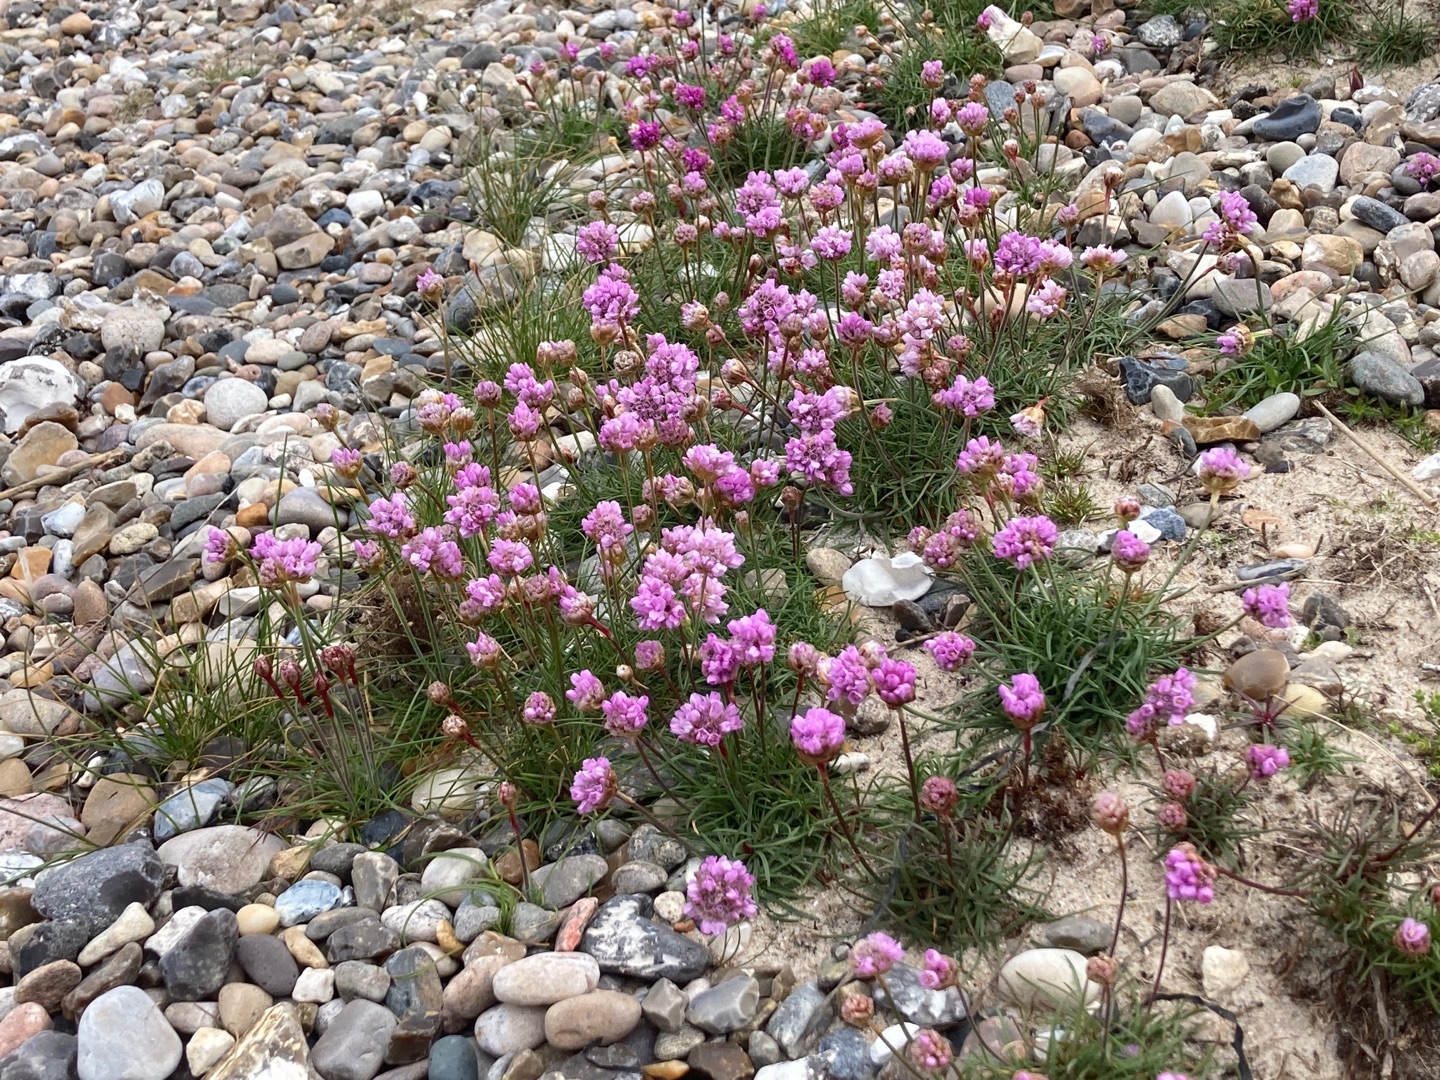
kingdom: Plantae
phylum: Tracheophyta
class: Magnoliopsida
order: Caryophyllales
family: Plumbaginaceae
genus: Armeria
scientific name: Armeria maritima
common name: Engelskgræs
